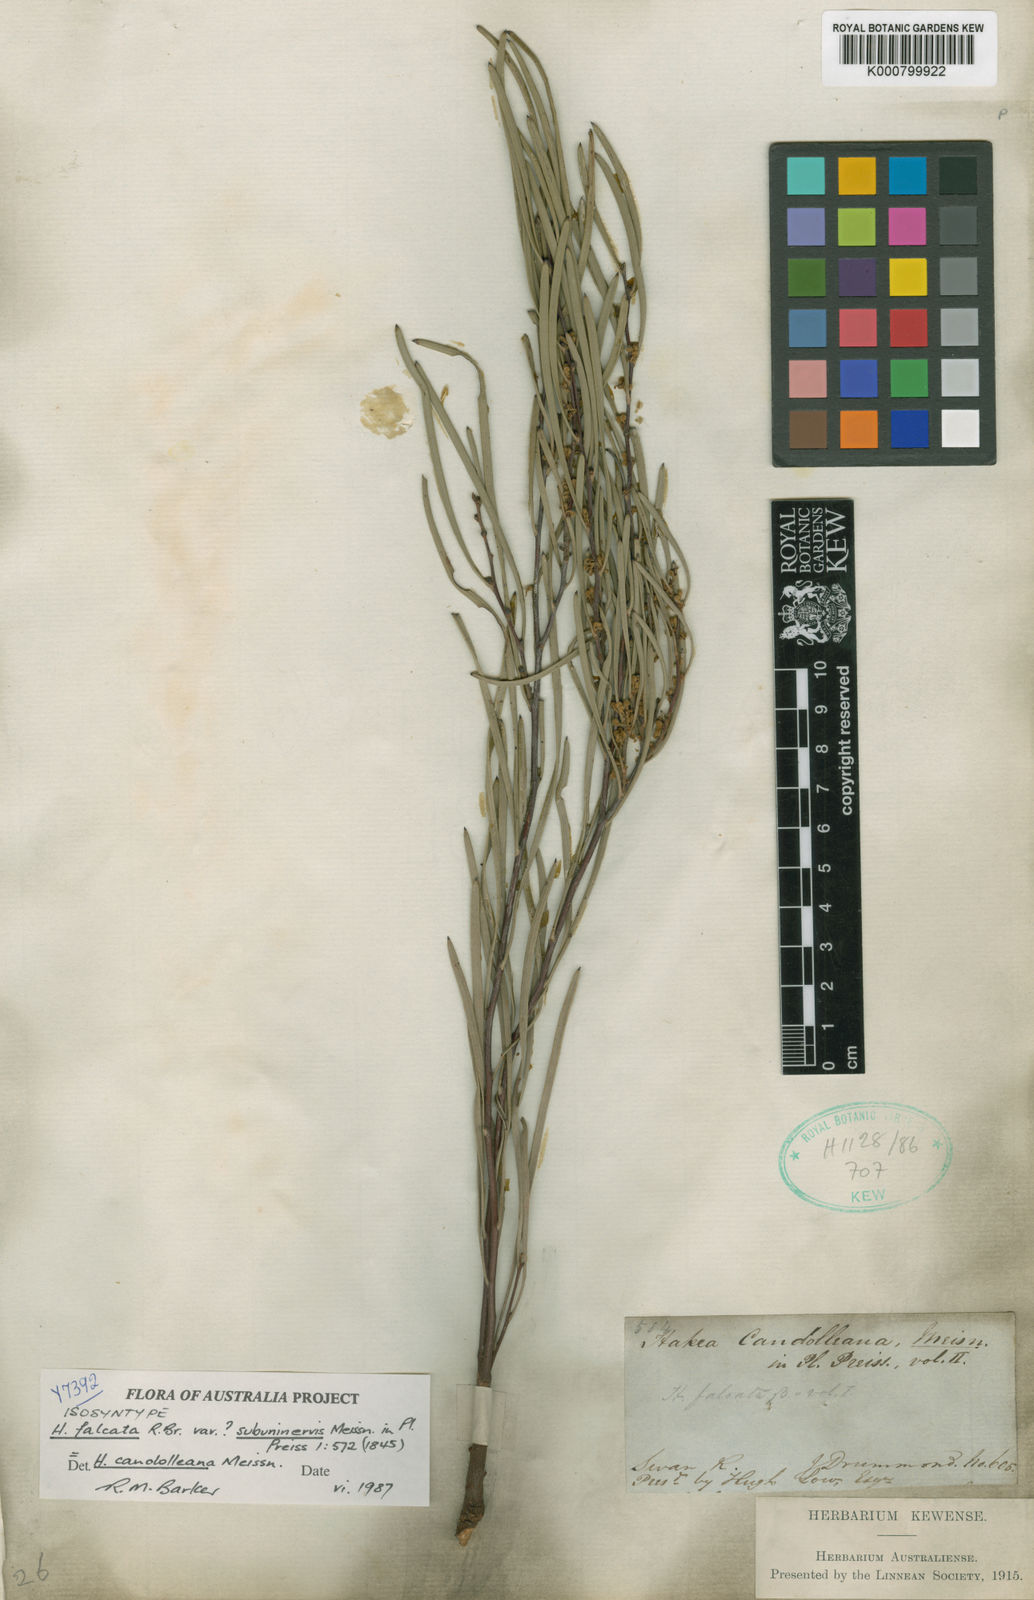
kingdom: Plantae
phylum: Tracheophyta
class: Magnoliopsida
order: Proteales
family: Proteaceae
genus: Hakea
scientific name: Hakea candolleana
